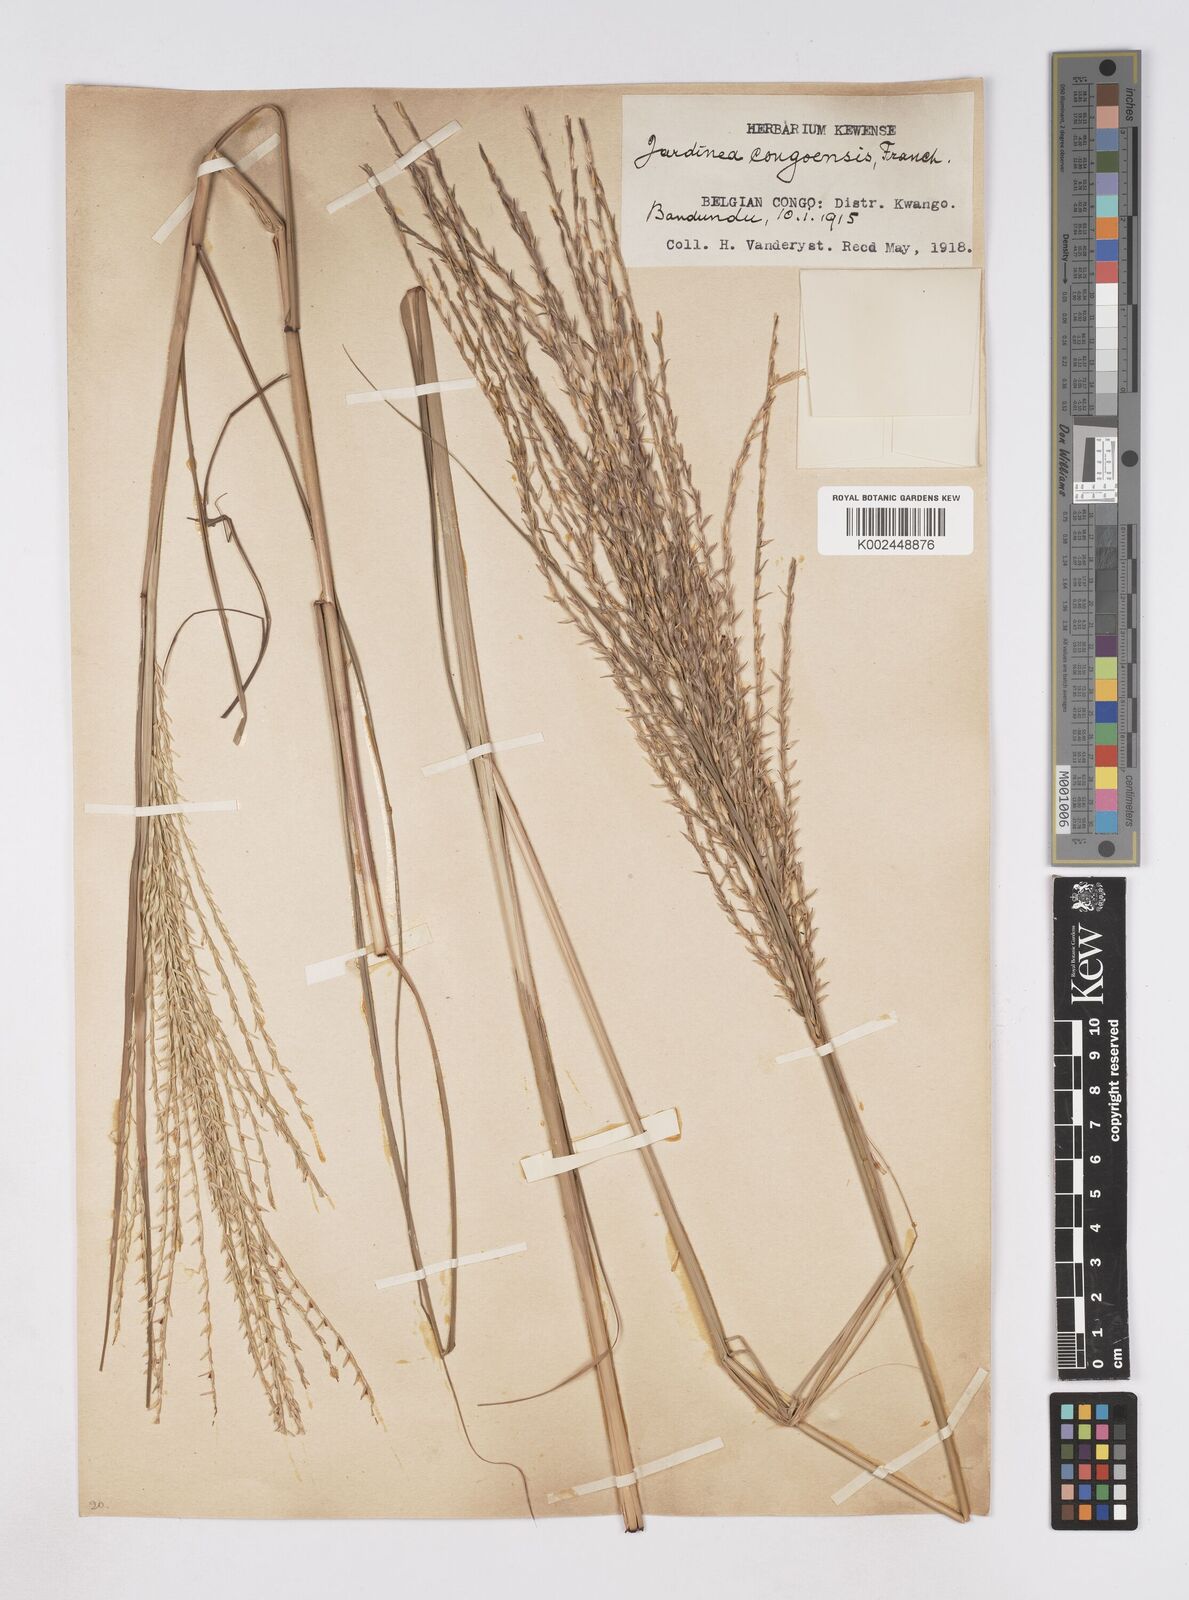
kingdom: Plantae
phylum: Tracheophyta
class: Liliopsida
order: Poales
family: Poaceae
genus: Phacelurus
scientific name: Phacelurus gabonensis
